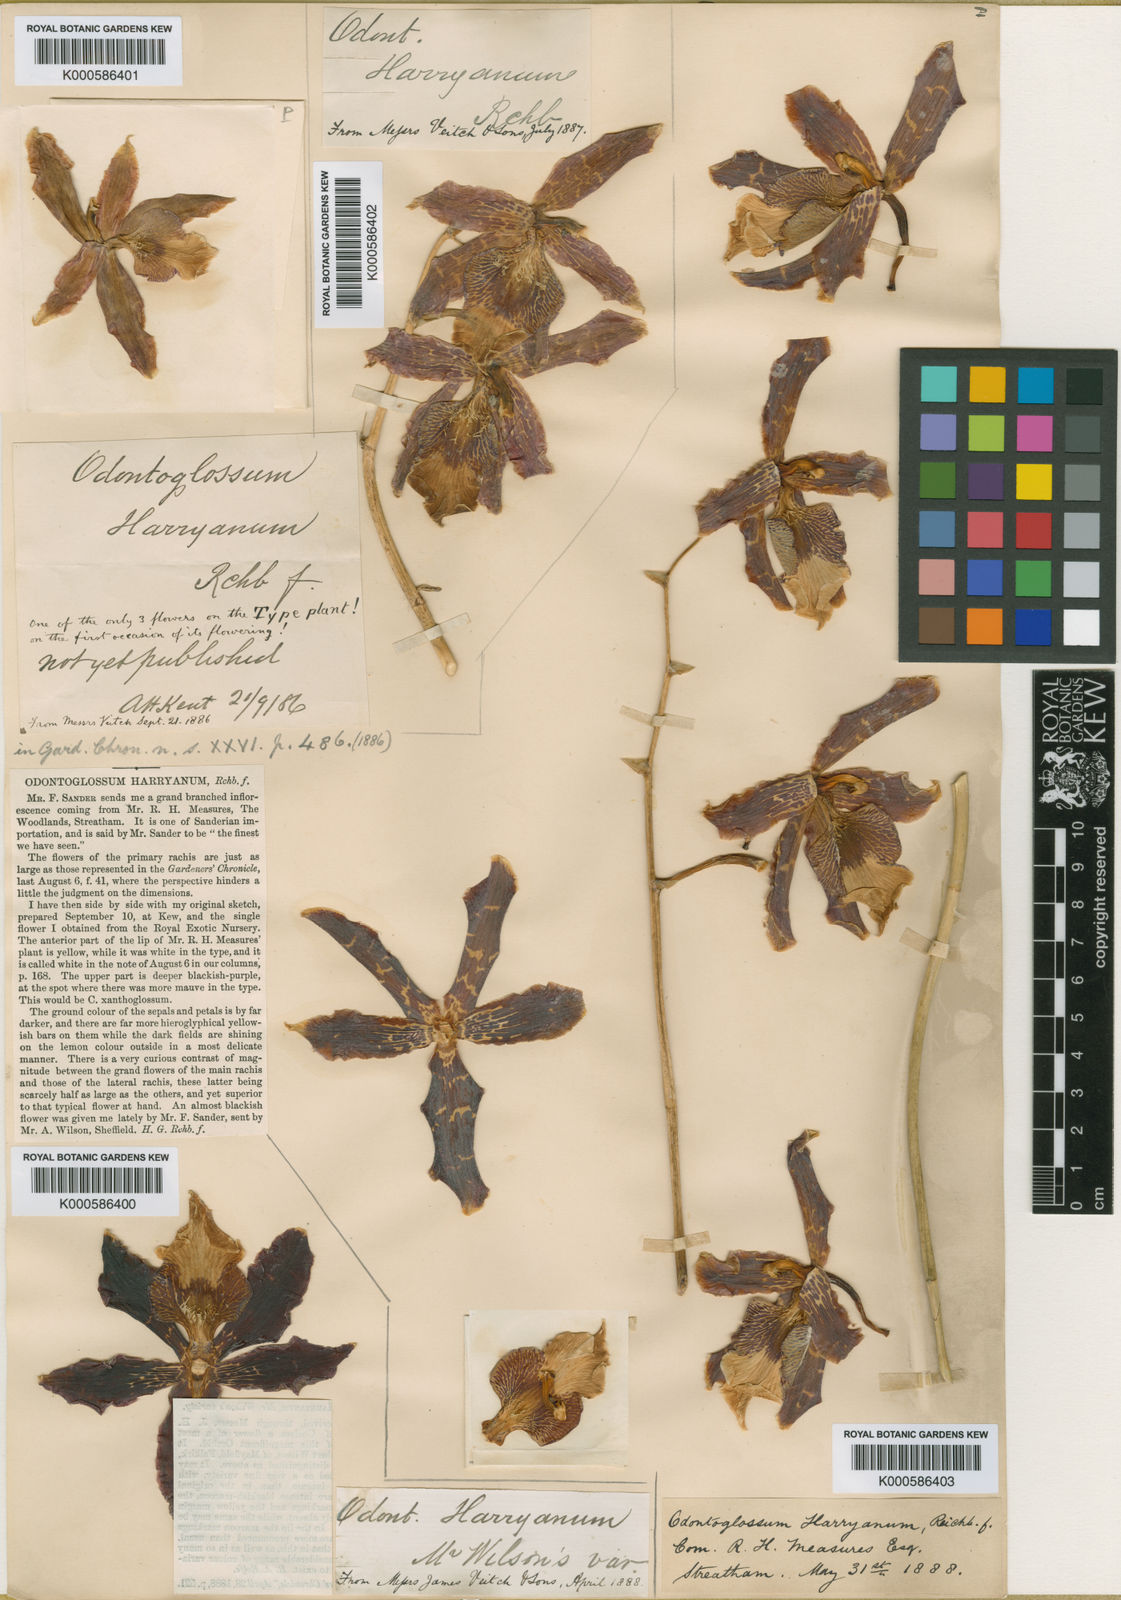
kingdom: Plantae
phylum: Tracheophyta
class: Liliopsida
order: Asparagales
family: Orchidaceae
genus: Oncidium
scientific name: Oncidium harryanum
